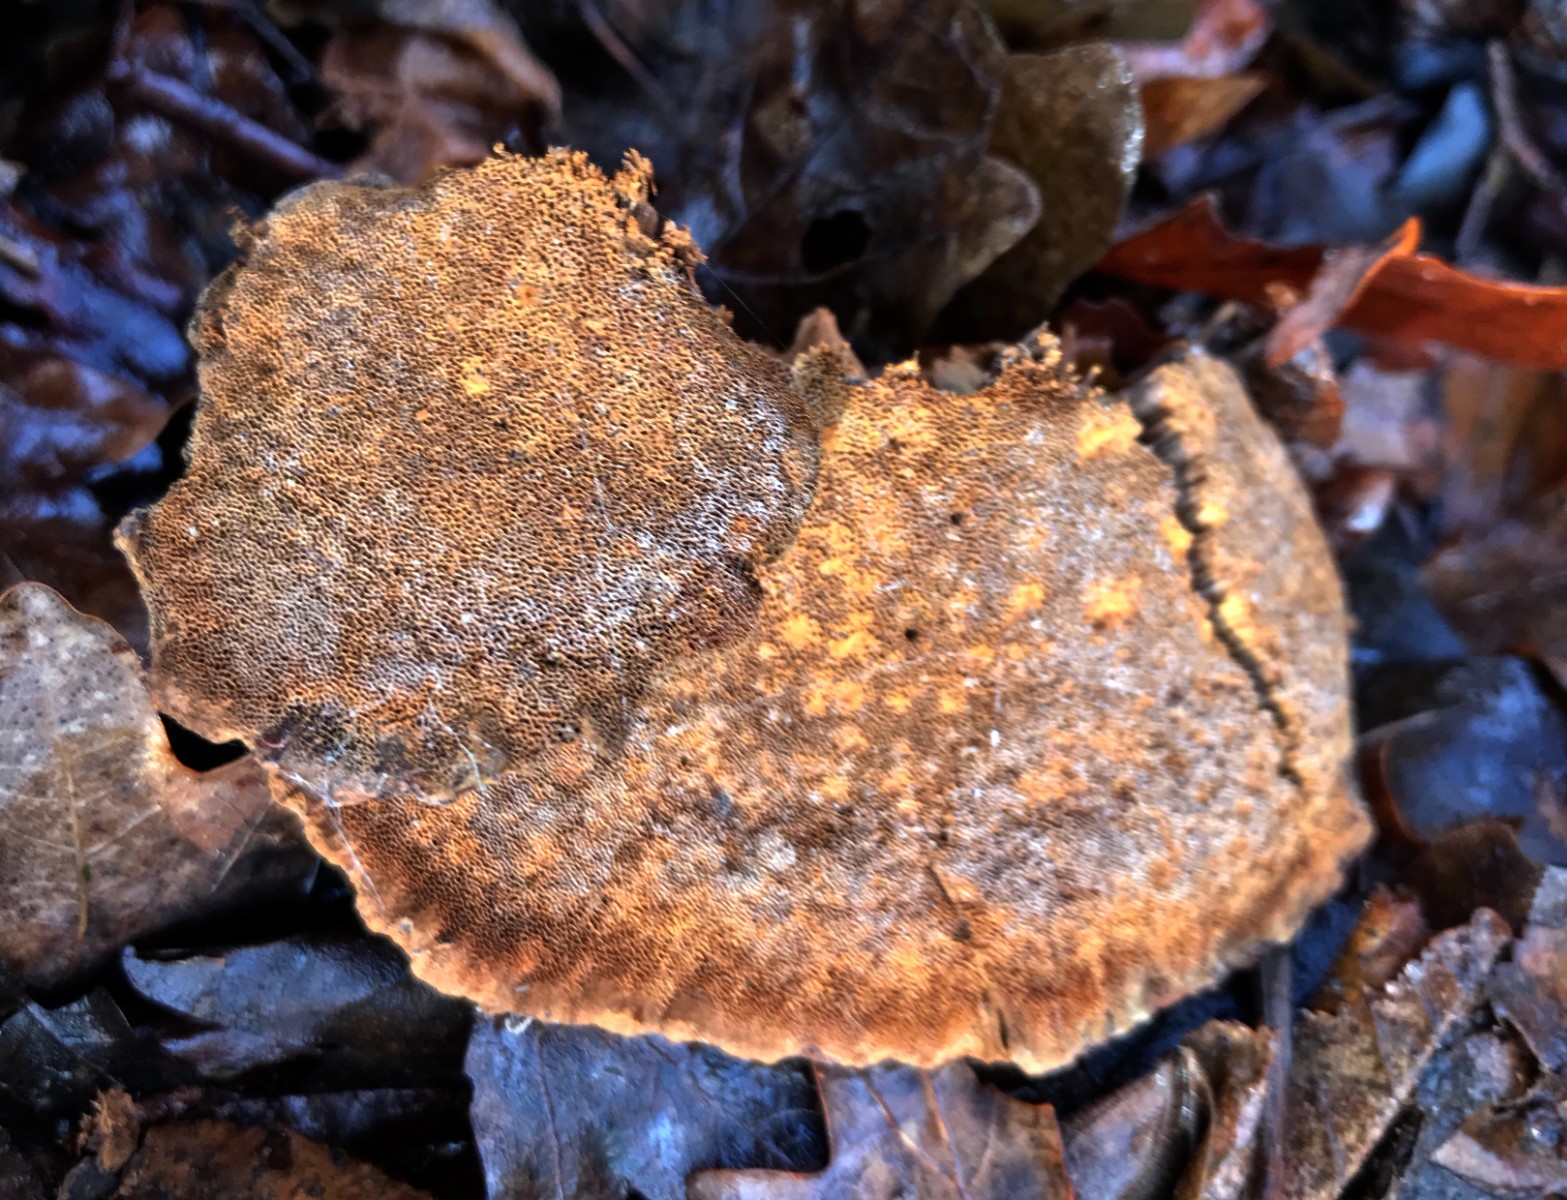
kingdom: Fungi
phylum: Basidiomycota
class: Agaricomycetes
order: Hymenochaetales
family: Hymenochaetaceae
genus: Xanthoporia
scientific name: Xanthoporia radiata
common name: elle-spejlporesvamp
